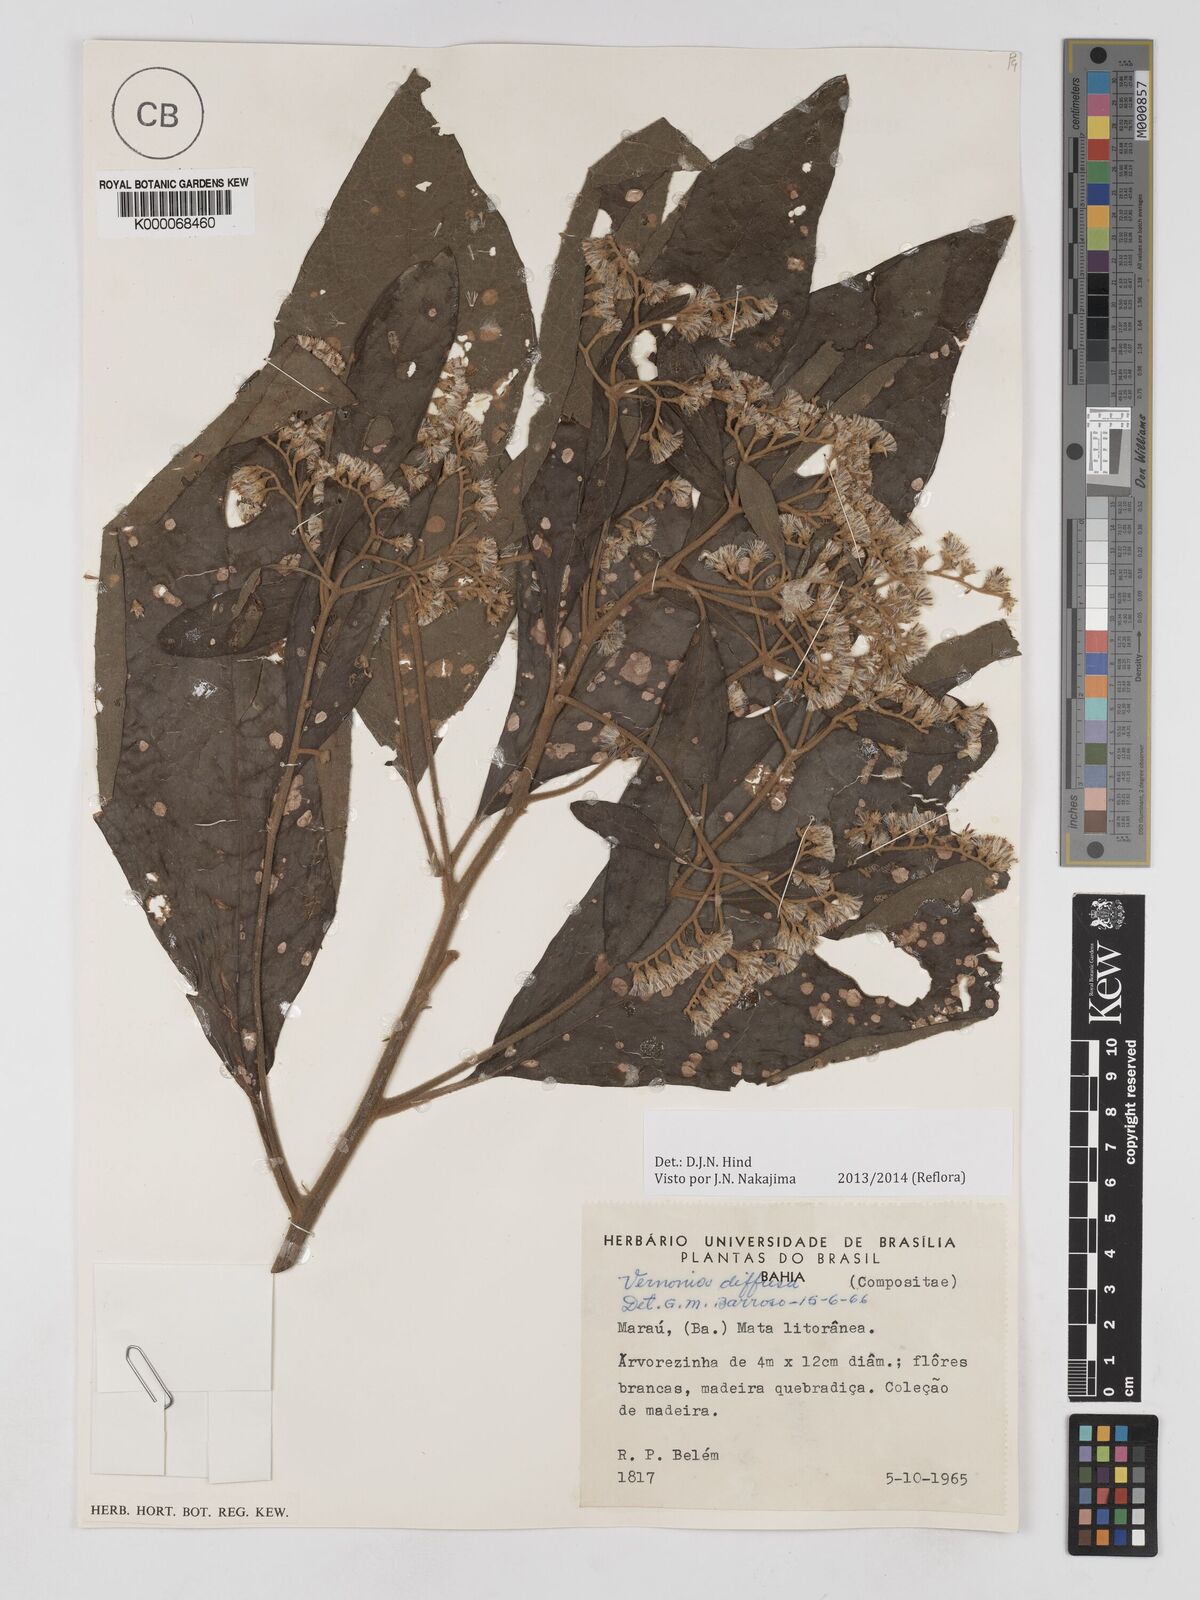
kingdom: Plantae
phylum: Tracheophyta
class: Magnoliopsida
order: Asterales
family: Asteraceae
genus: Vernonanthura
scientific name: Vernonanthura divaricata
